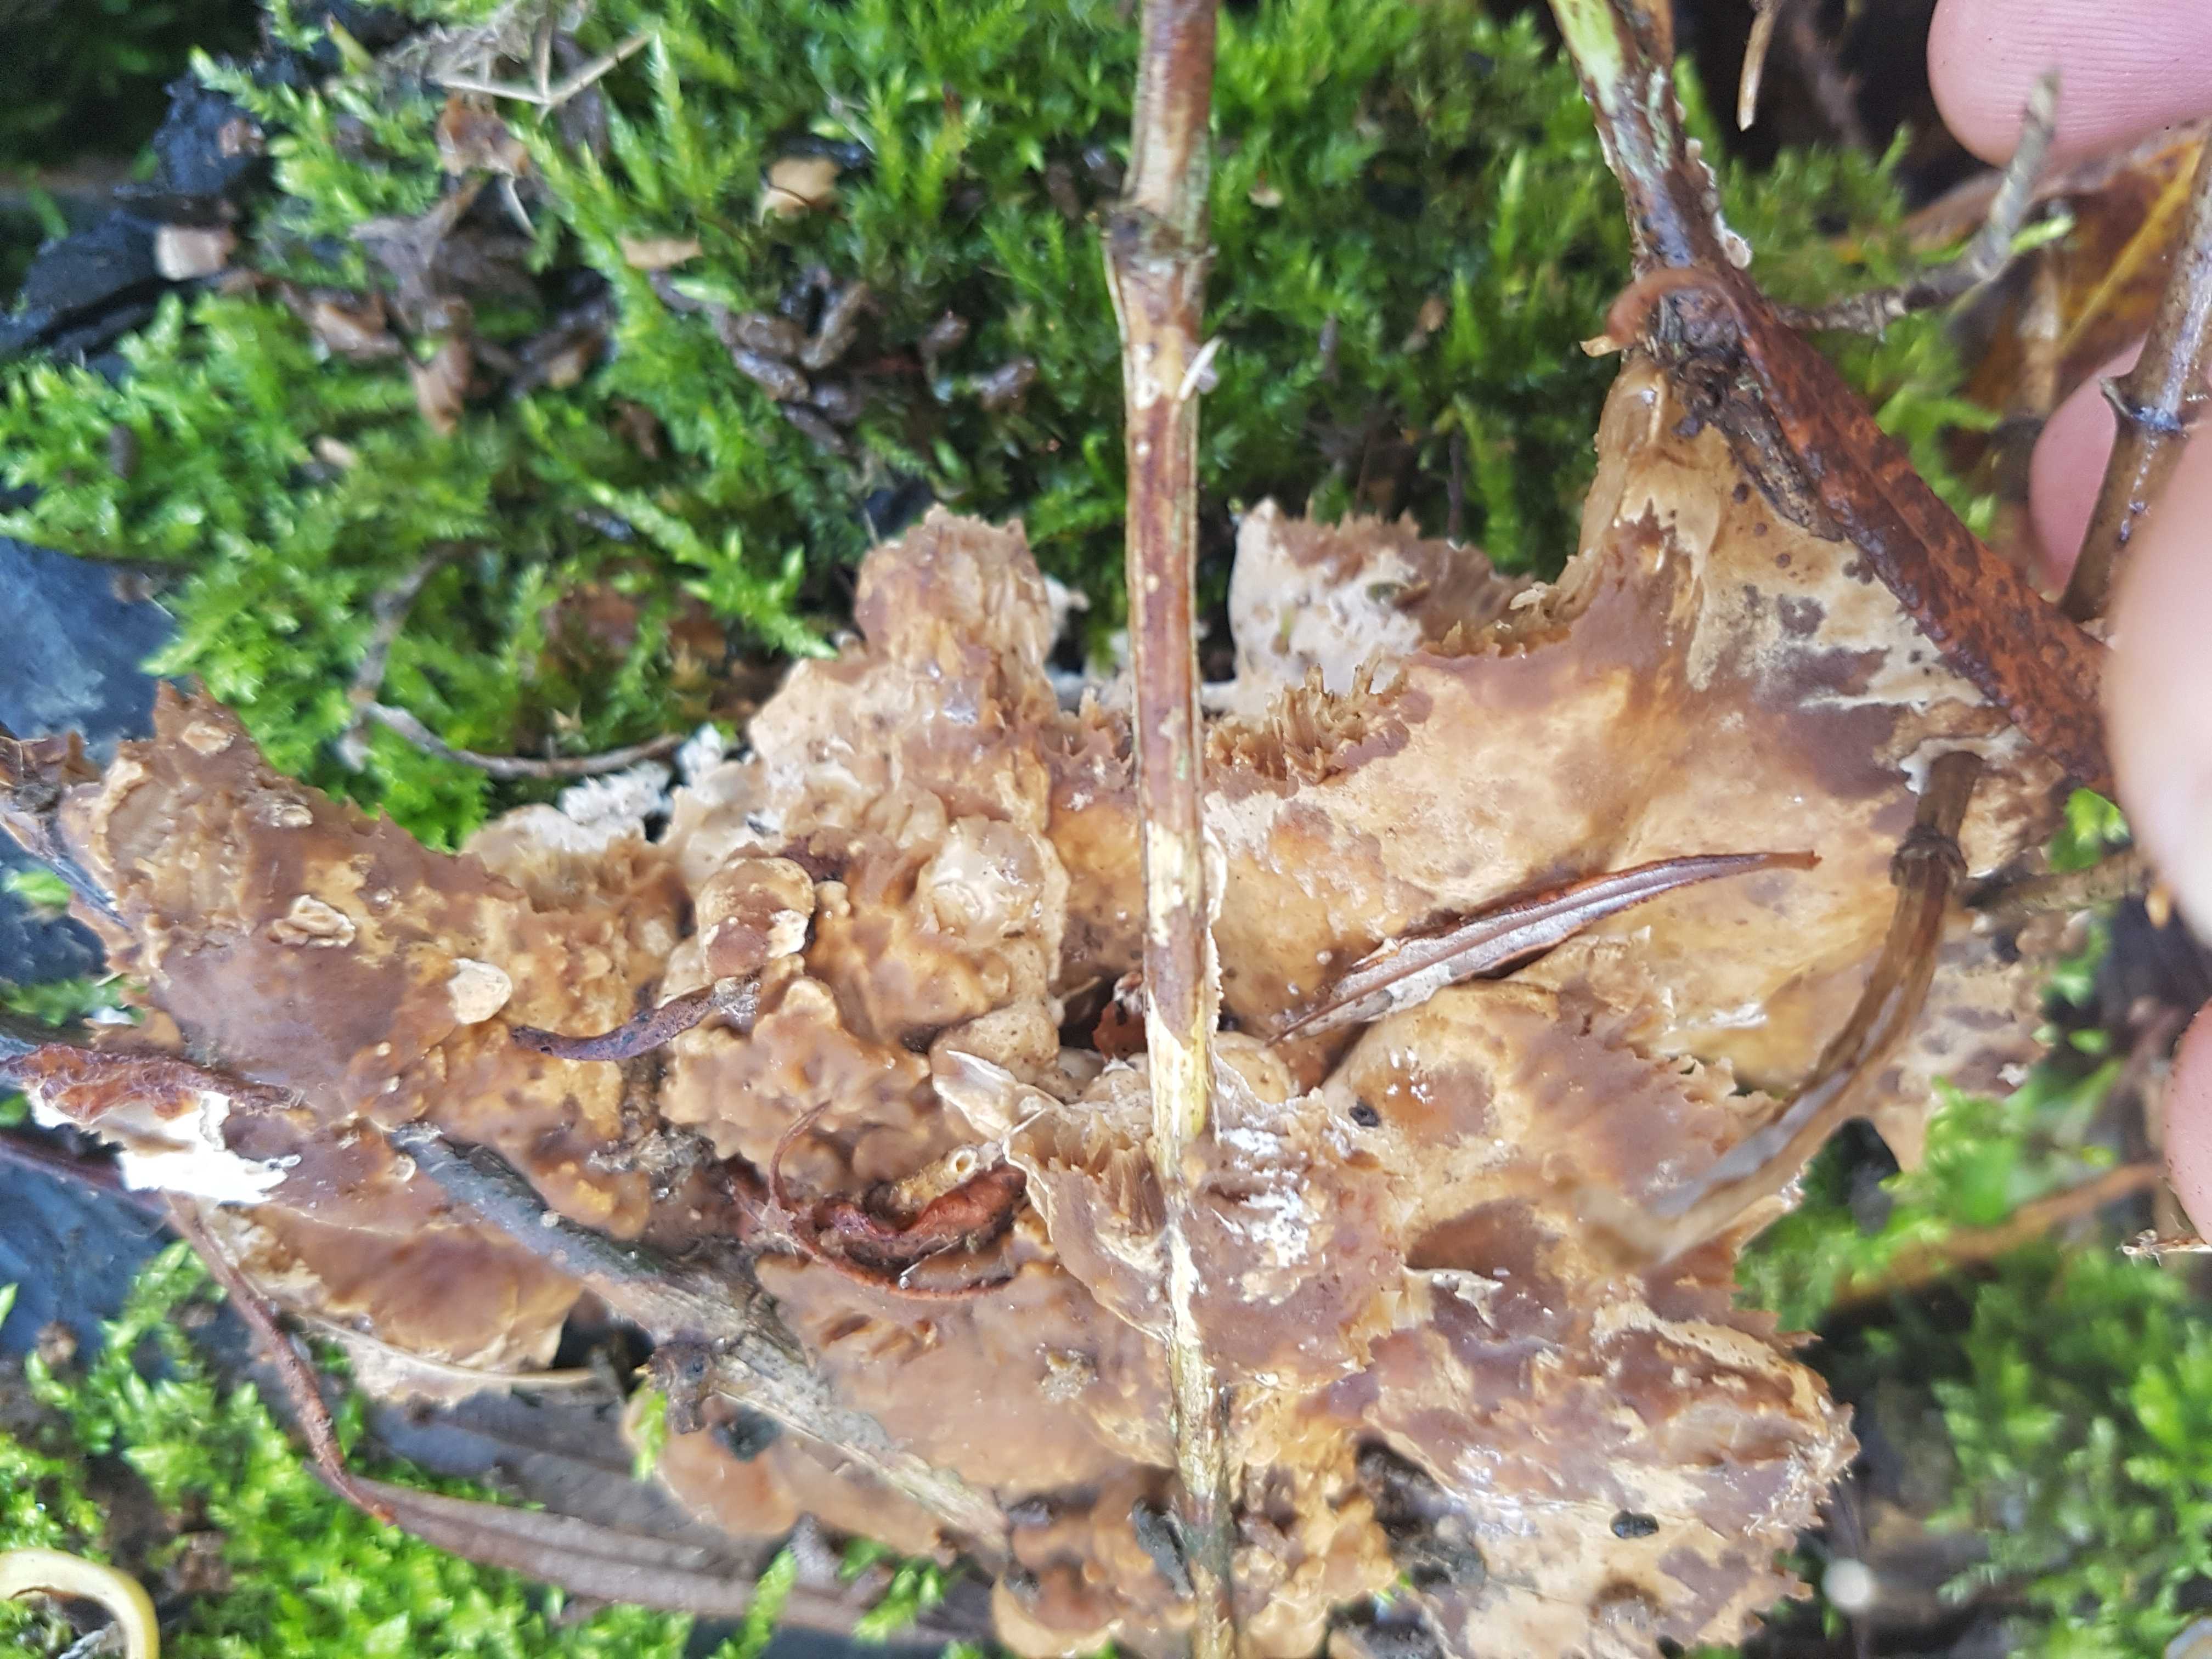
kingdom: Fungi
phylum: Basidiomycota
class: Agaricomycetes
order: Polyporales
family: Phanerochaetaceae
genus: Bjerkandera
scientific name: Bjerkandera fumosa
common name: grågul sodporesvamp
